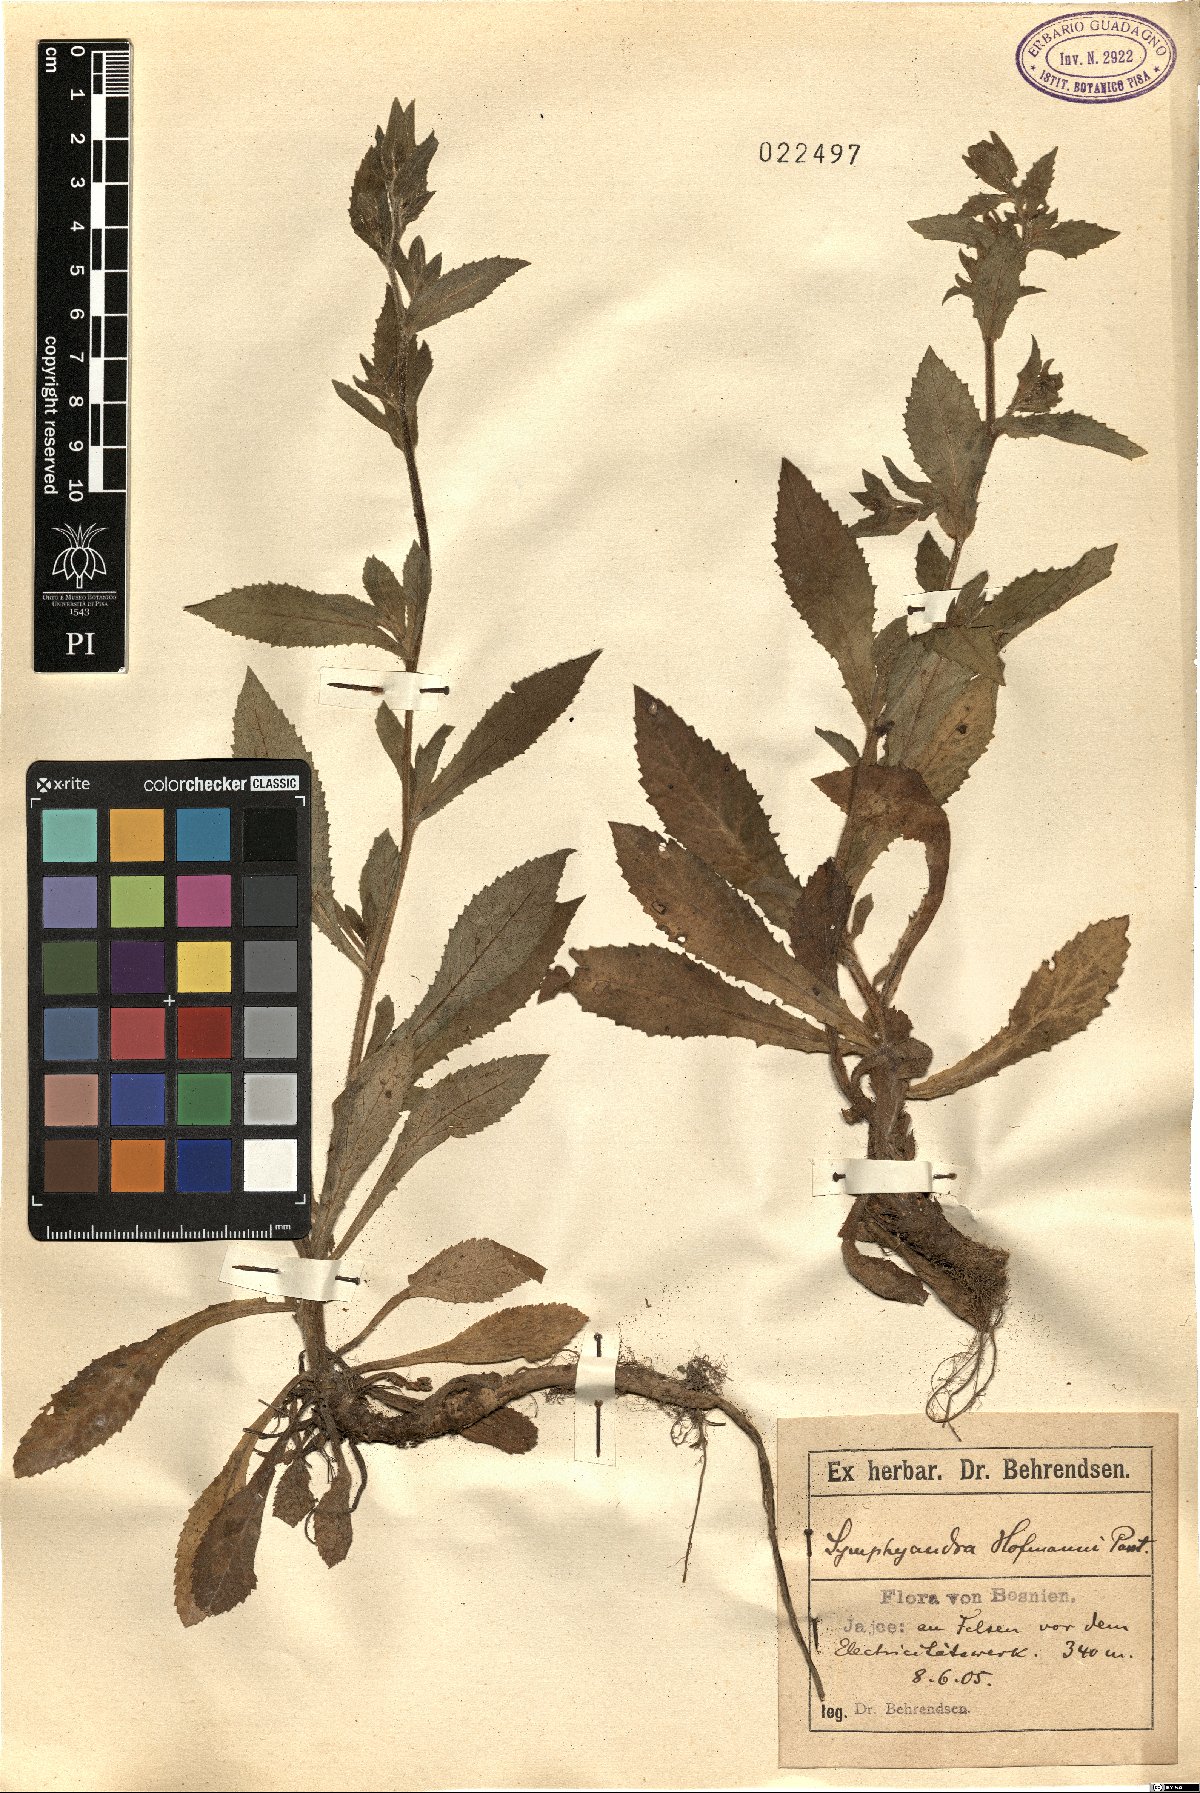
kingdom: Plantae
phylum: Tracheophyta
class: Magnoliopsida
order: Asterales
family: Campanulaceae
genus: Campanula
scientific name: Campanula hofmannii
